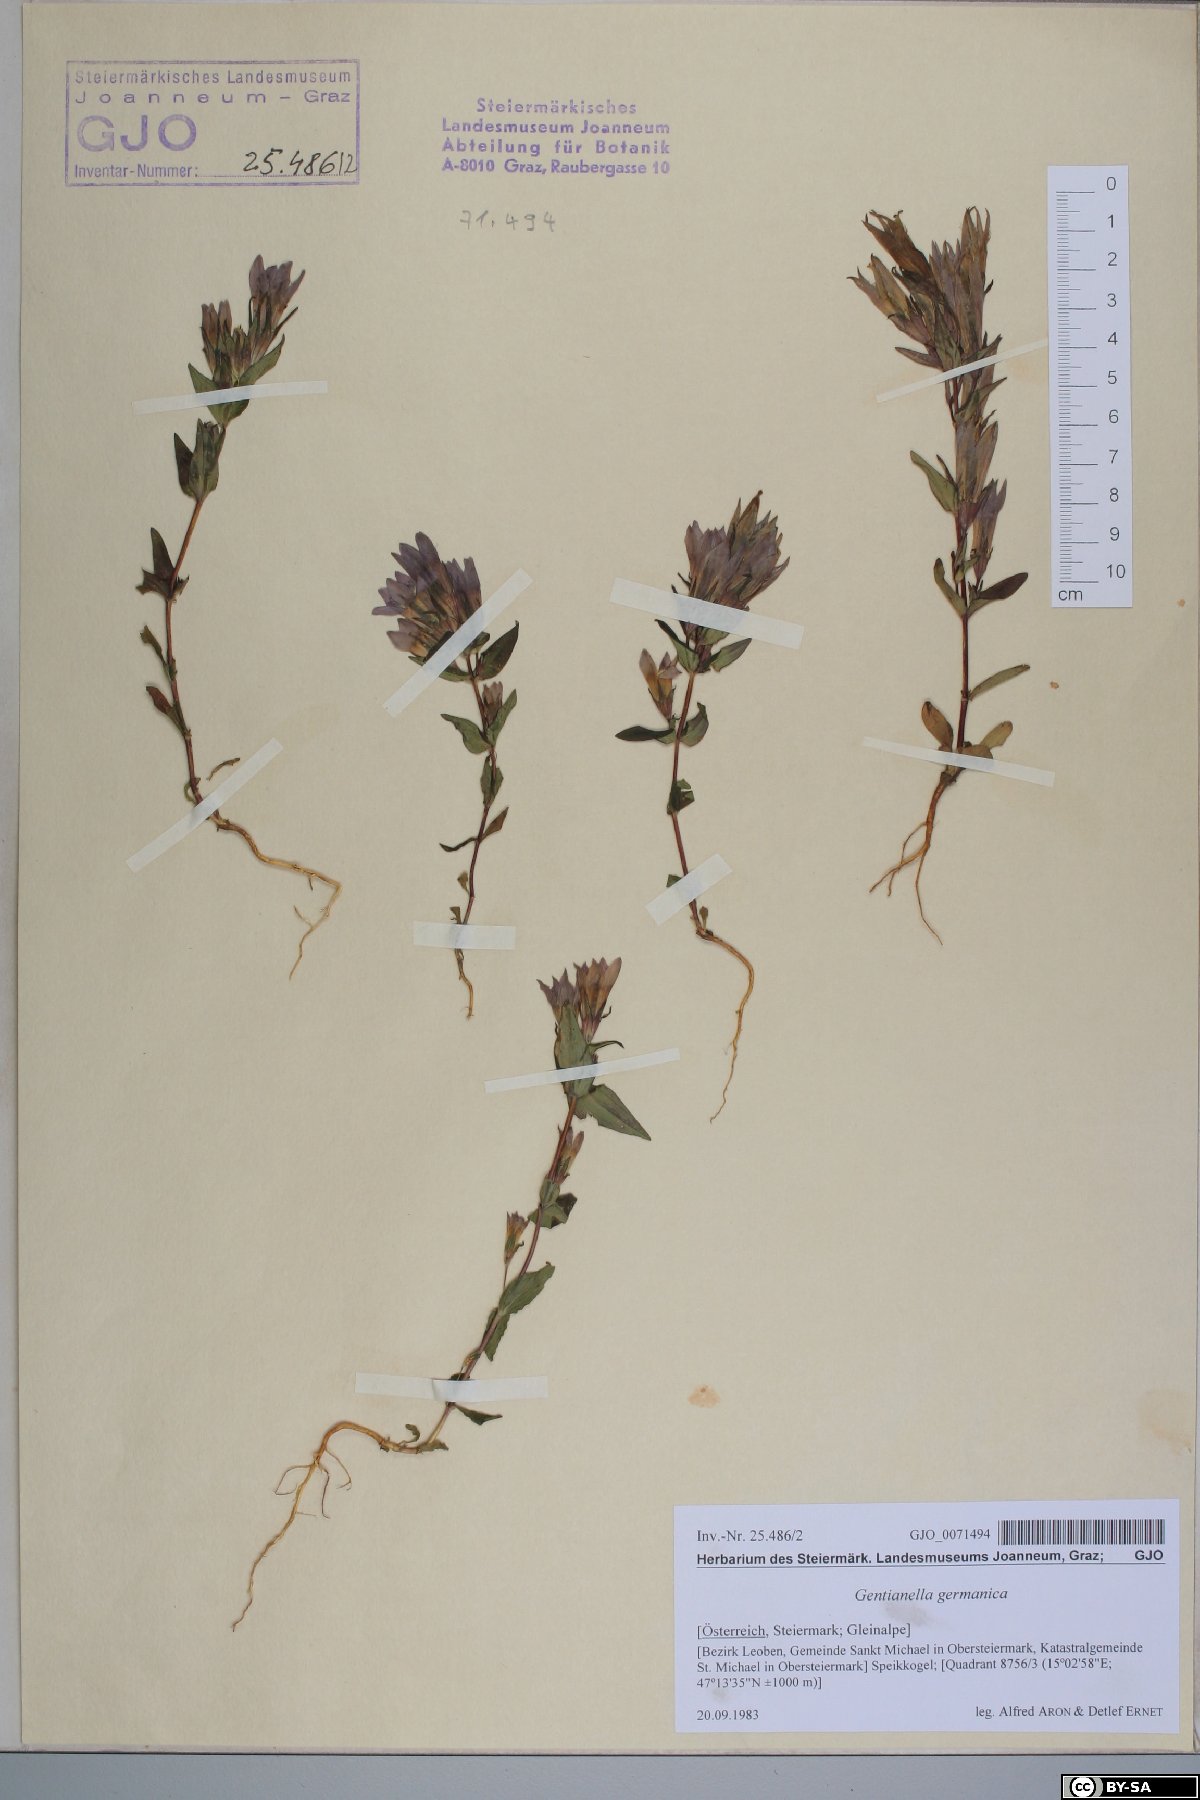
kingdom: Plantae
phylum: Tracheophyta
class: Magnoliopsida
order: Gentianales
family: Gentianaceae
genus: Gentianella
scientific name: Gentianella germanica
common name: Chiltern-gentian
